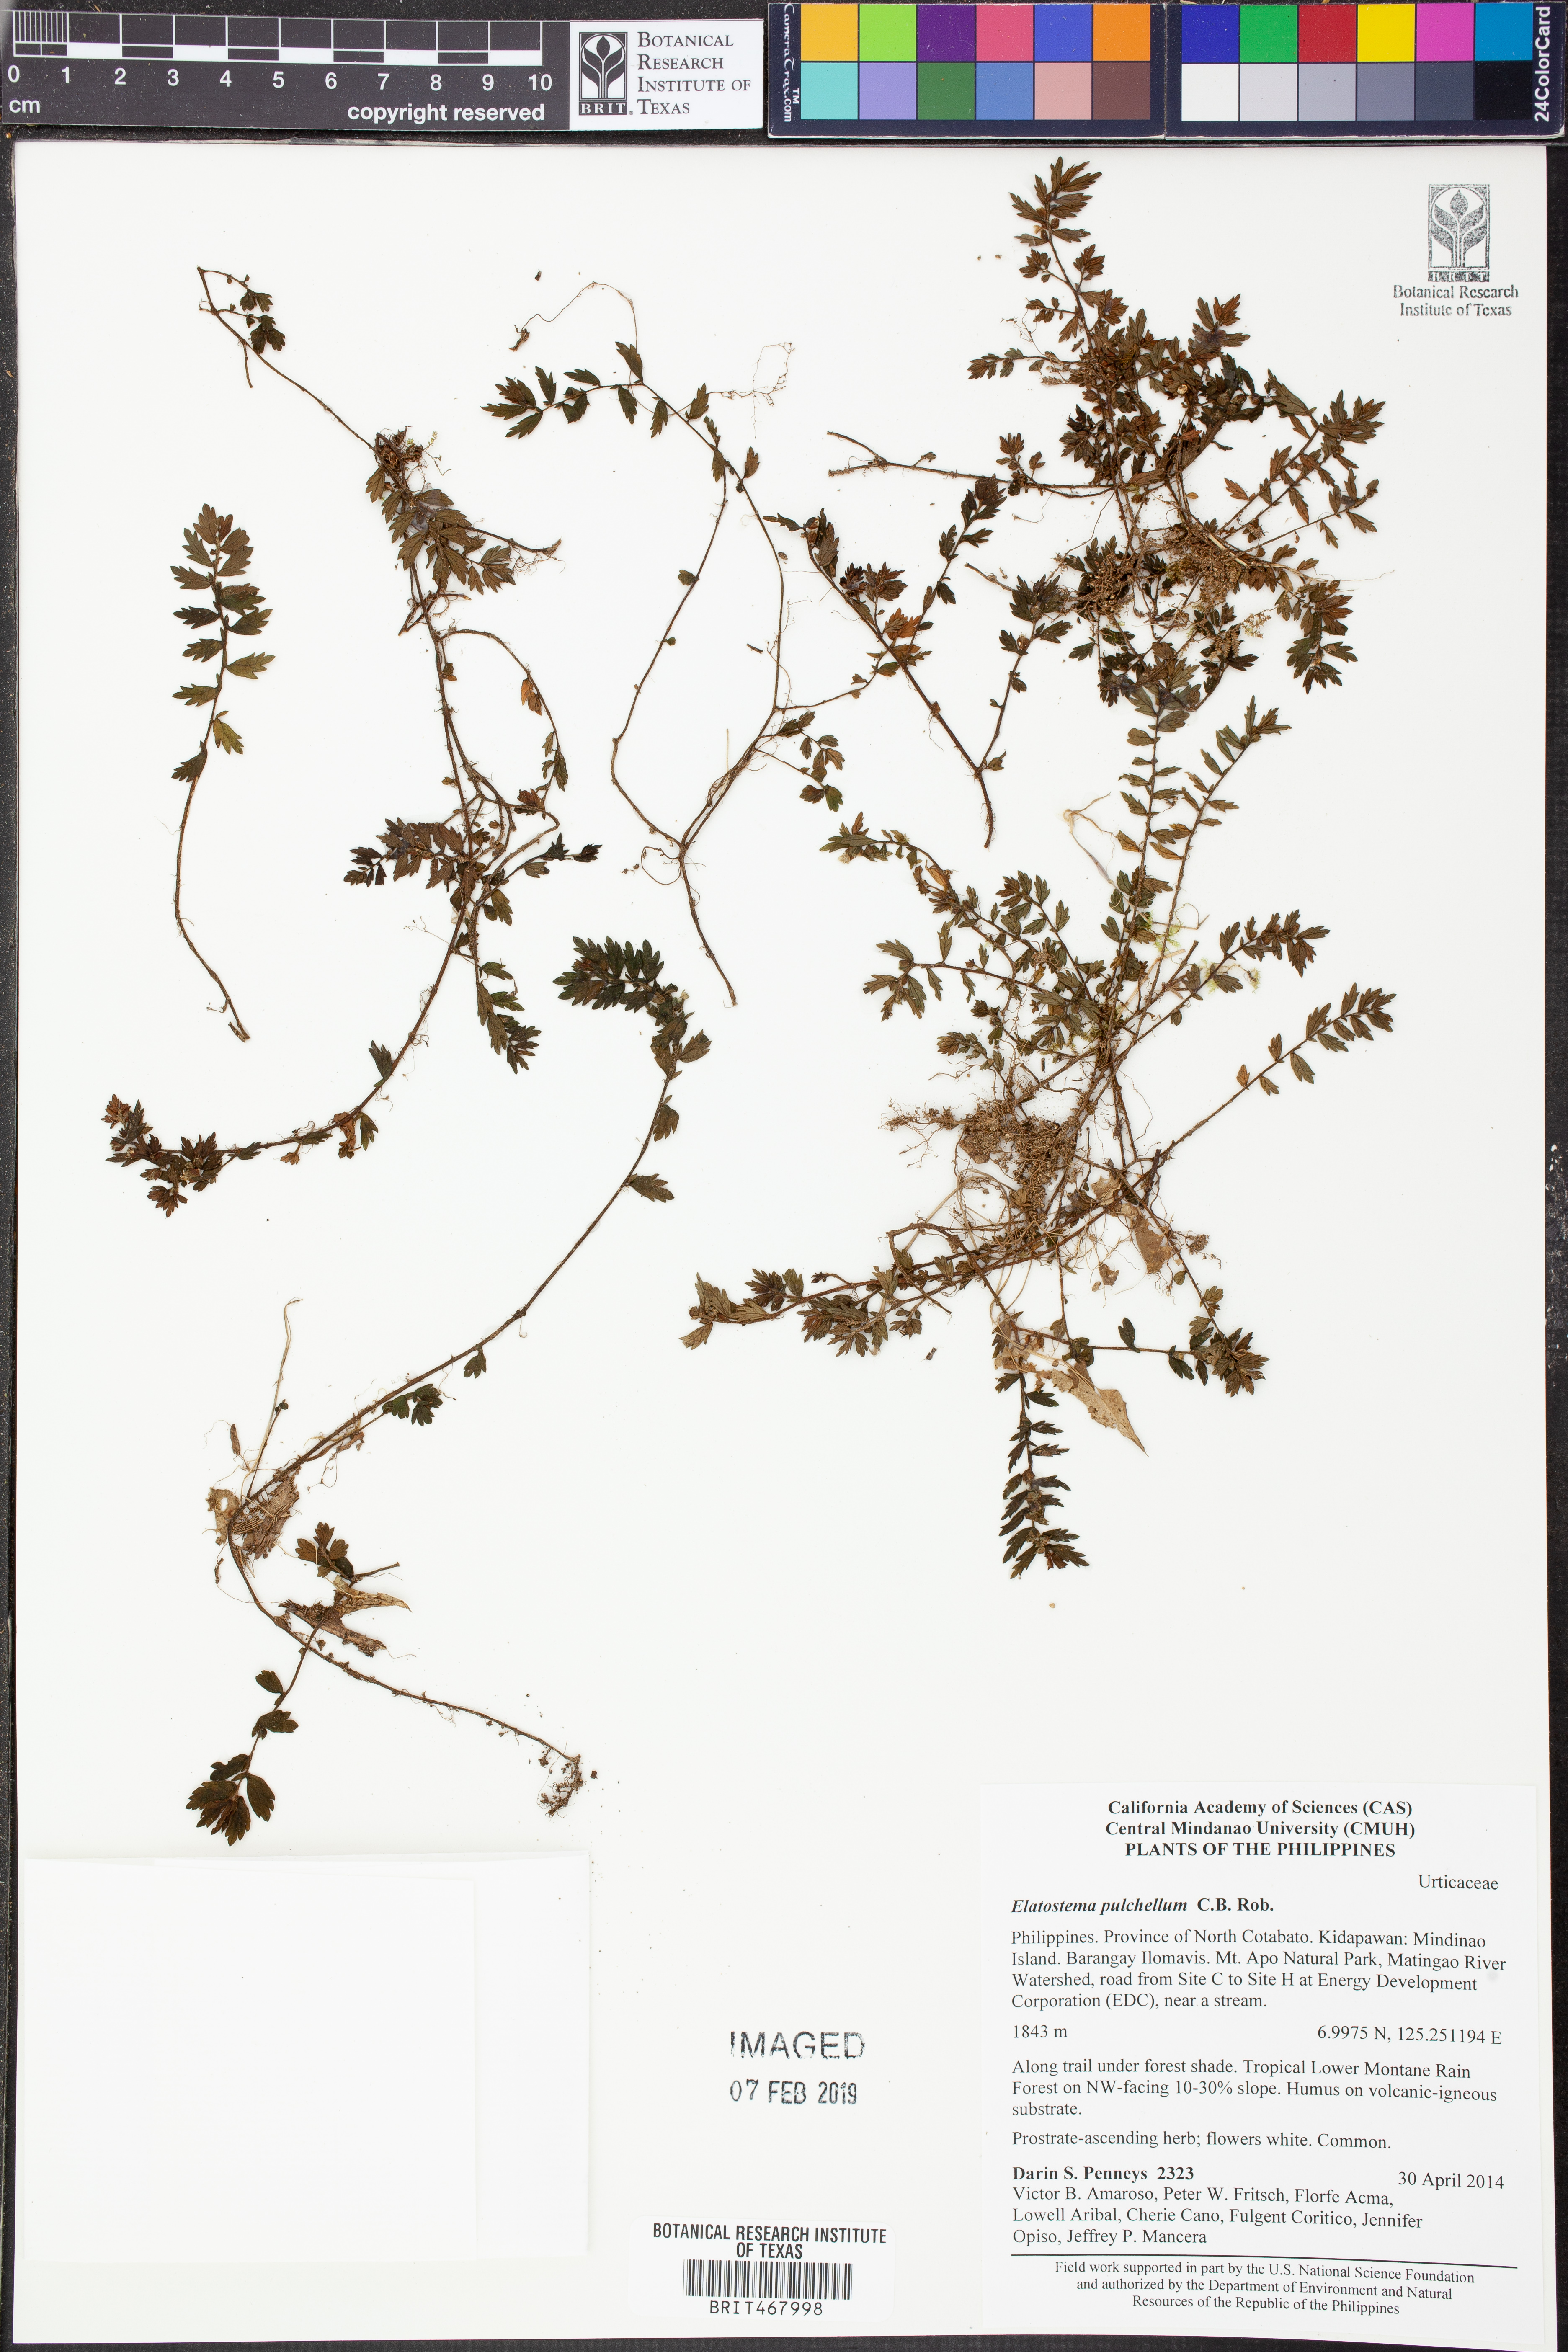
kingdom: Plantae
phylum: Tracheophyta
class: Magnoliopsida
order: Rosales
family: Urticaceae
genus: Elatostema
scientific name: Elatostema pulchellum
